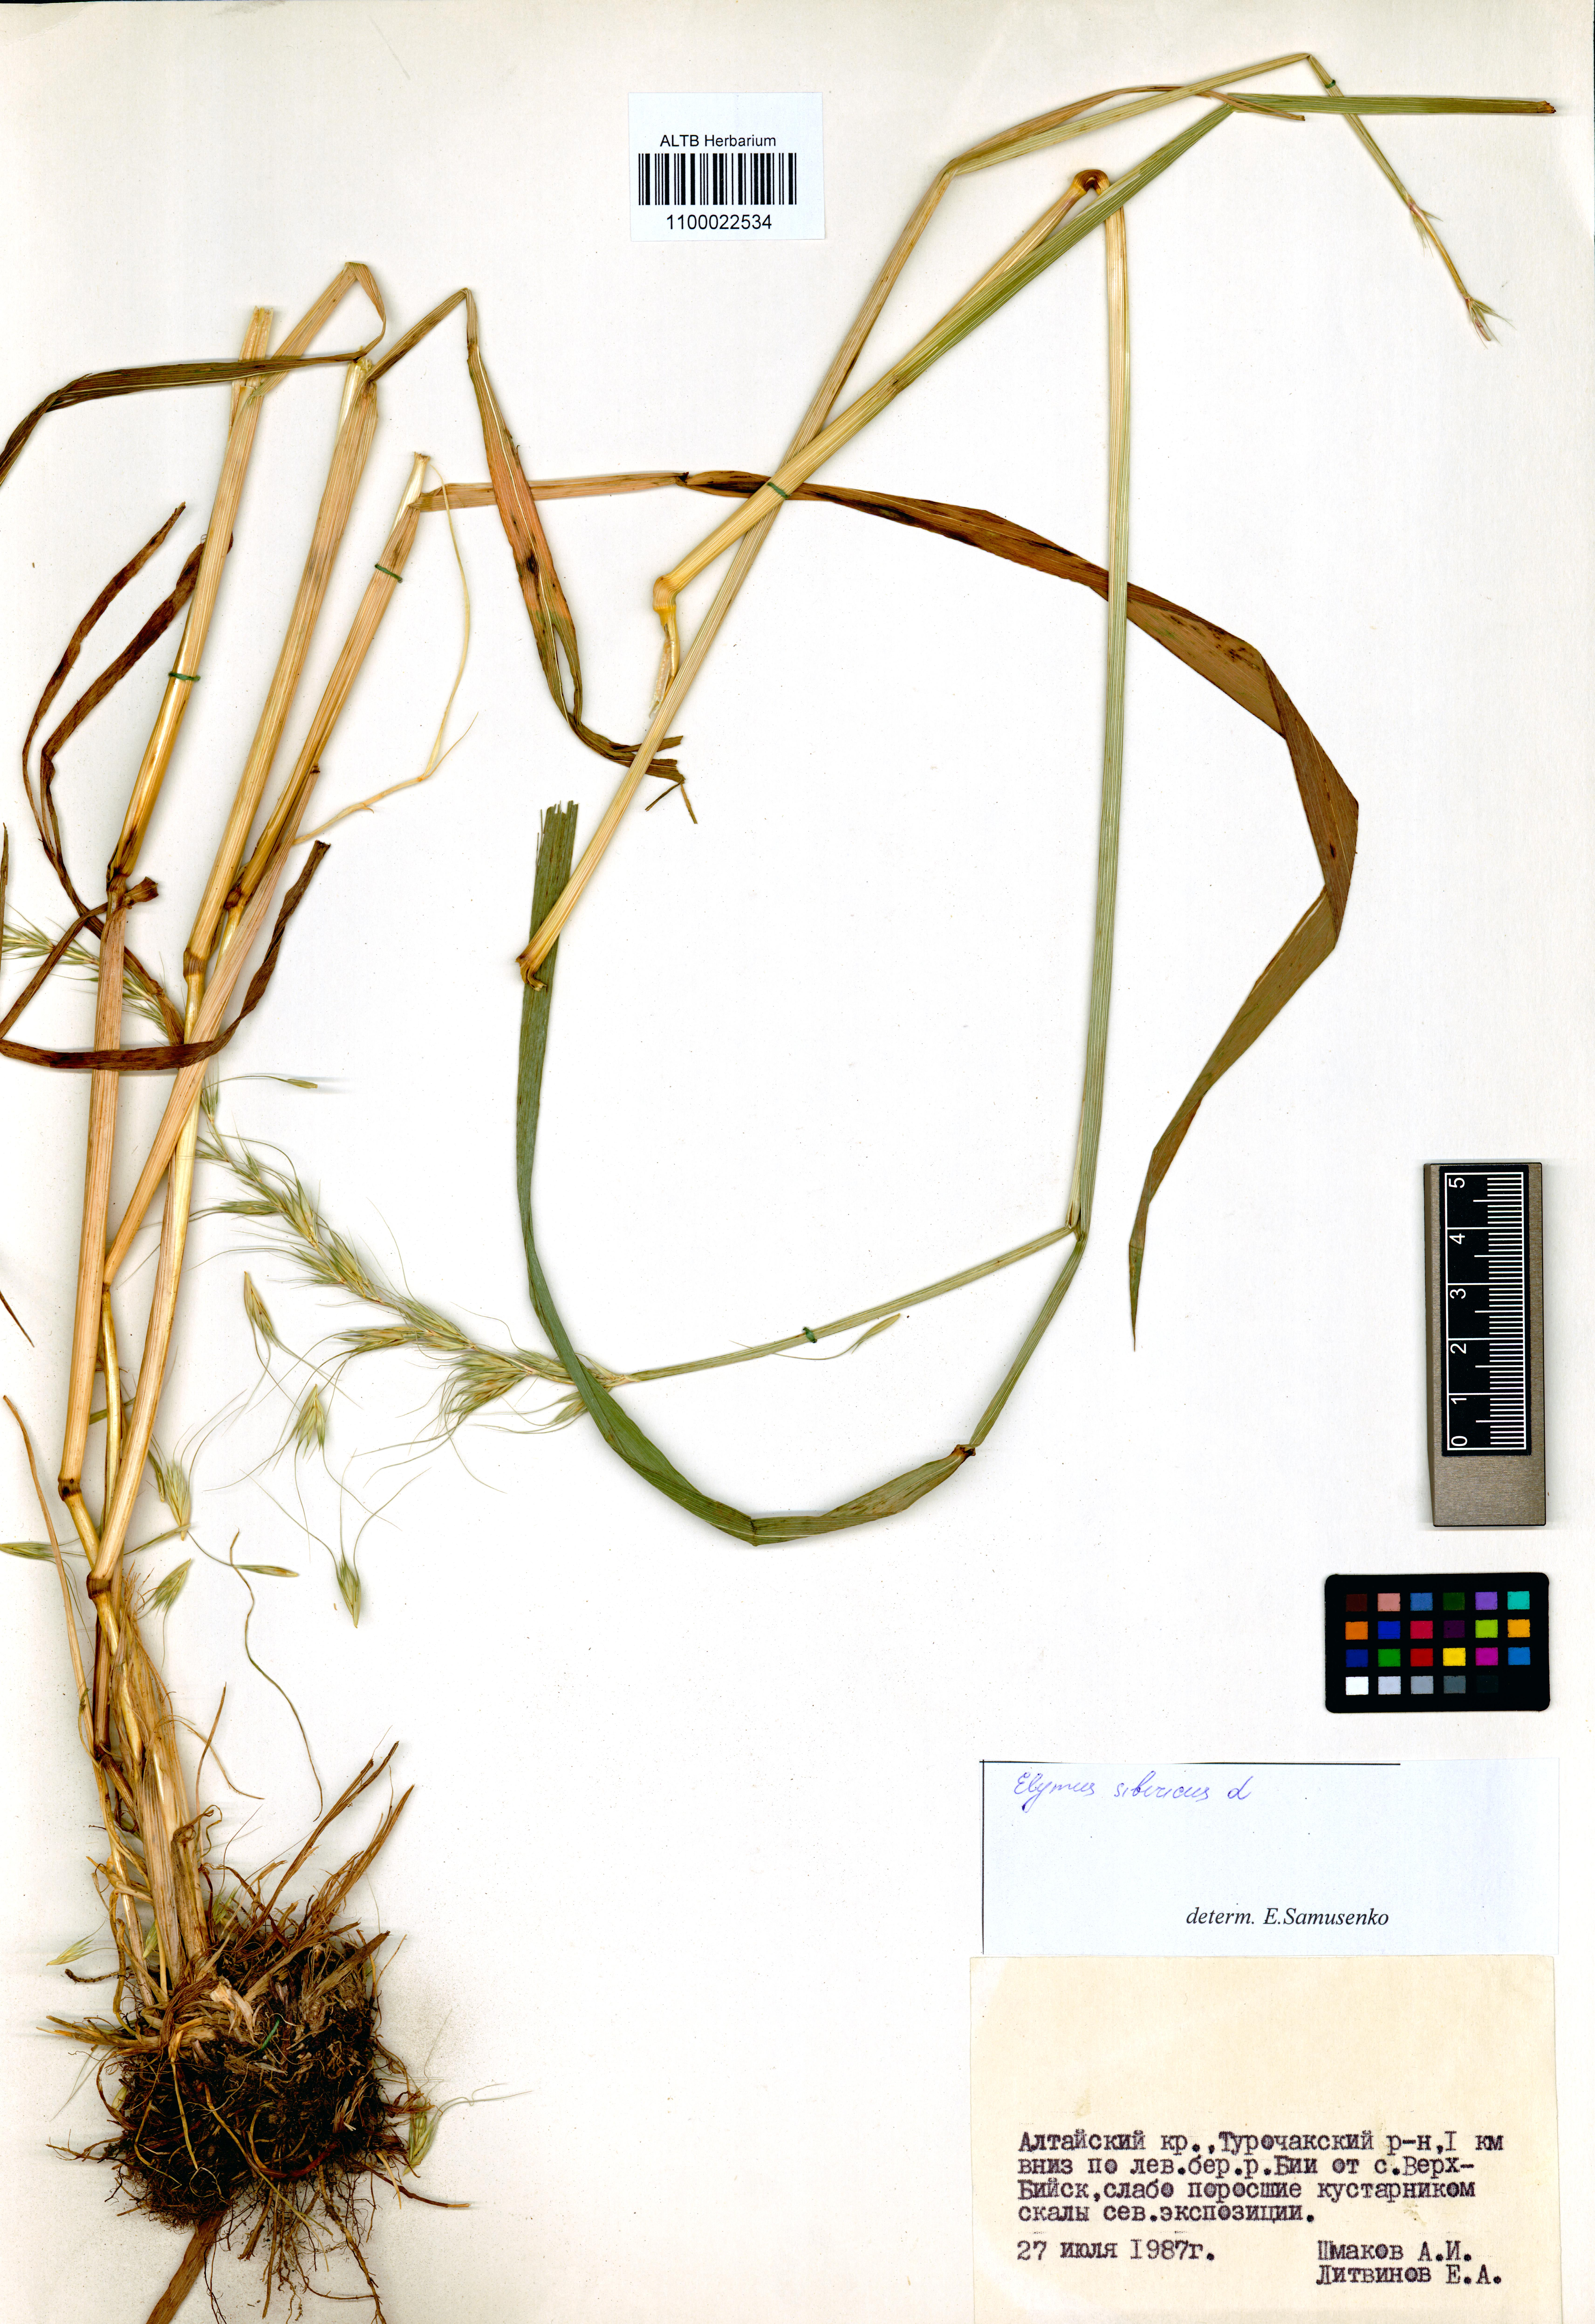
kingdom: Plantae
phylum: Tracheophyta
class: Liliopsida
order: Poales
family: Poaceae
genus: Elymus
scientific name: Elymus sibiricus
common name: Siberian wildrye
